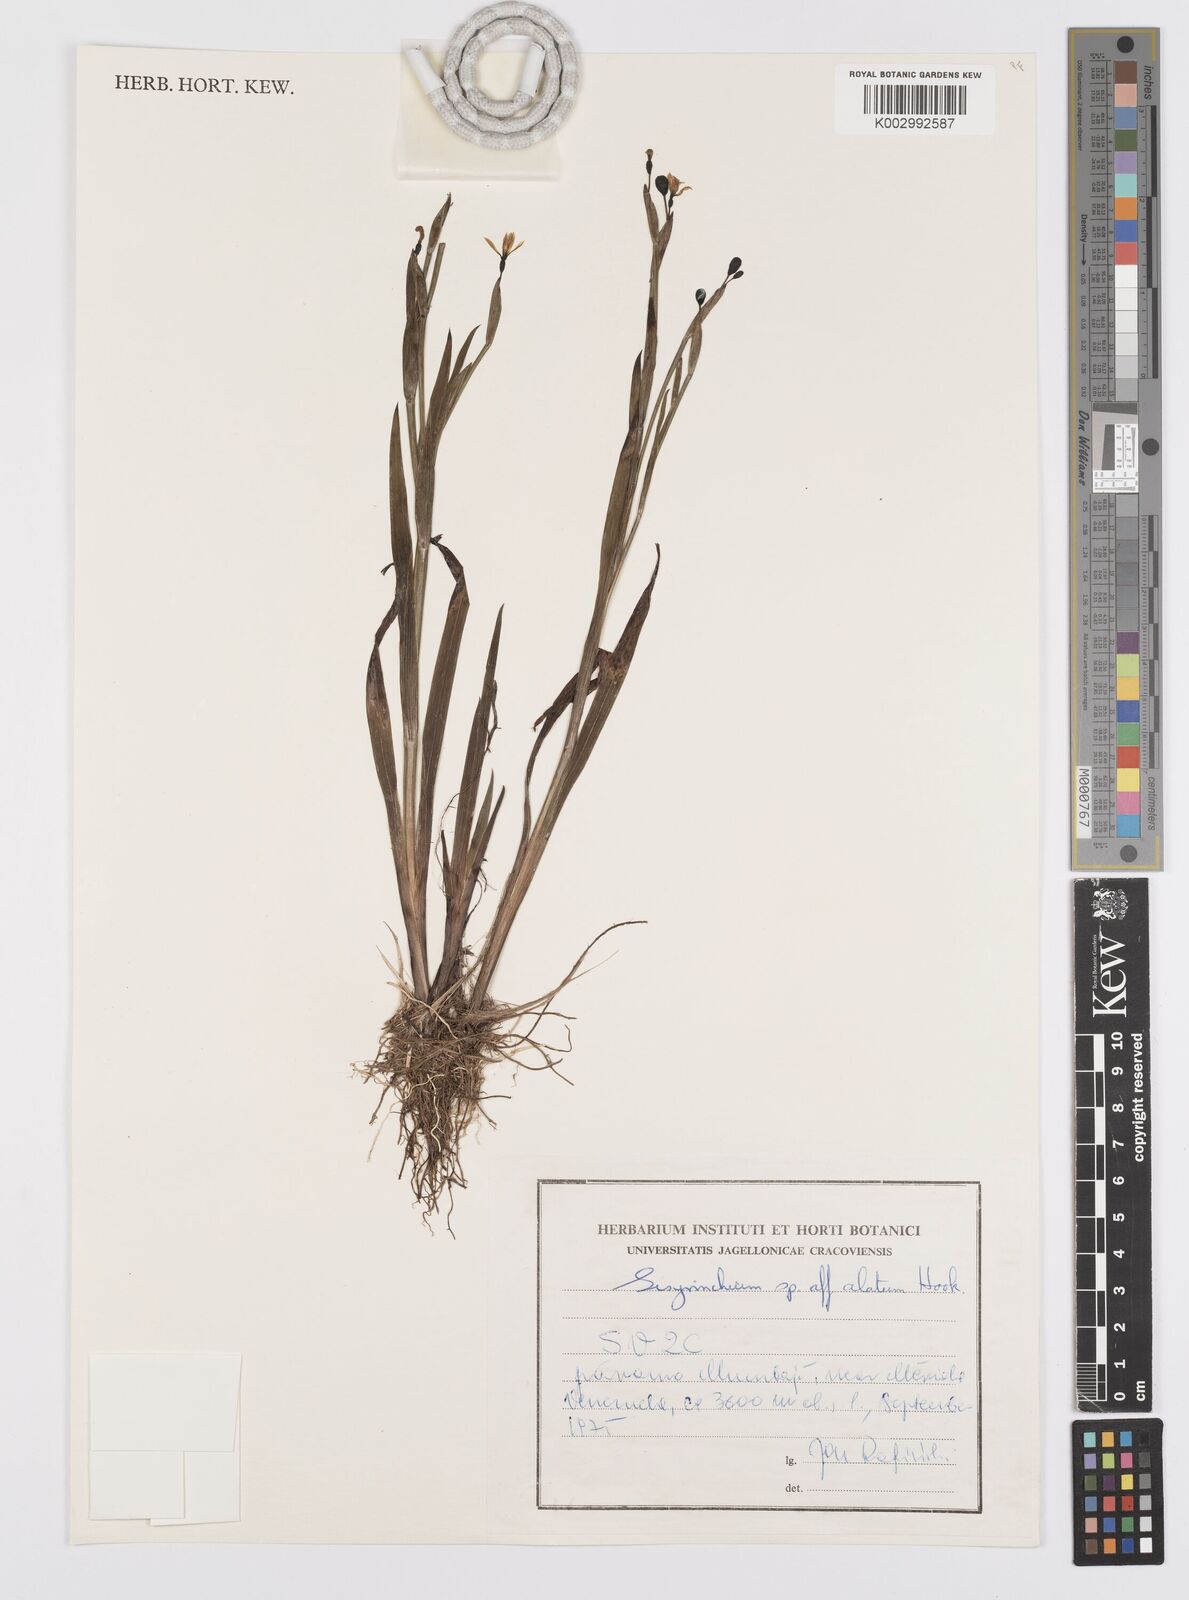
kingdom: Plantae
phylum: Tracheophyta
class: Liliopsida
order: Asparagales
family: Iridaceae
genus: Sisyrinchium
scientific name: Sisyrinchium vaginatum
